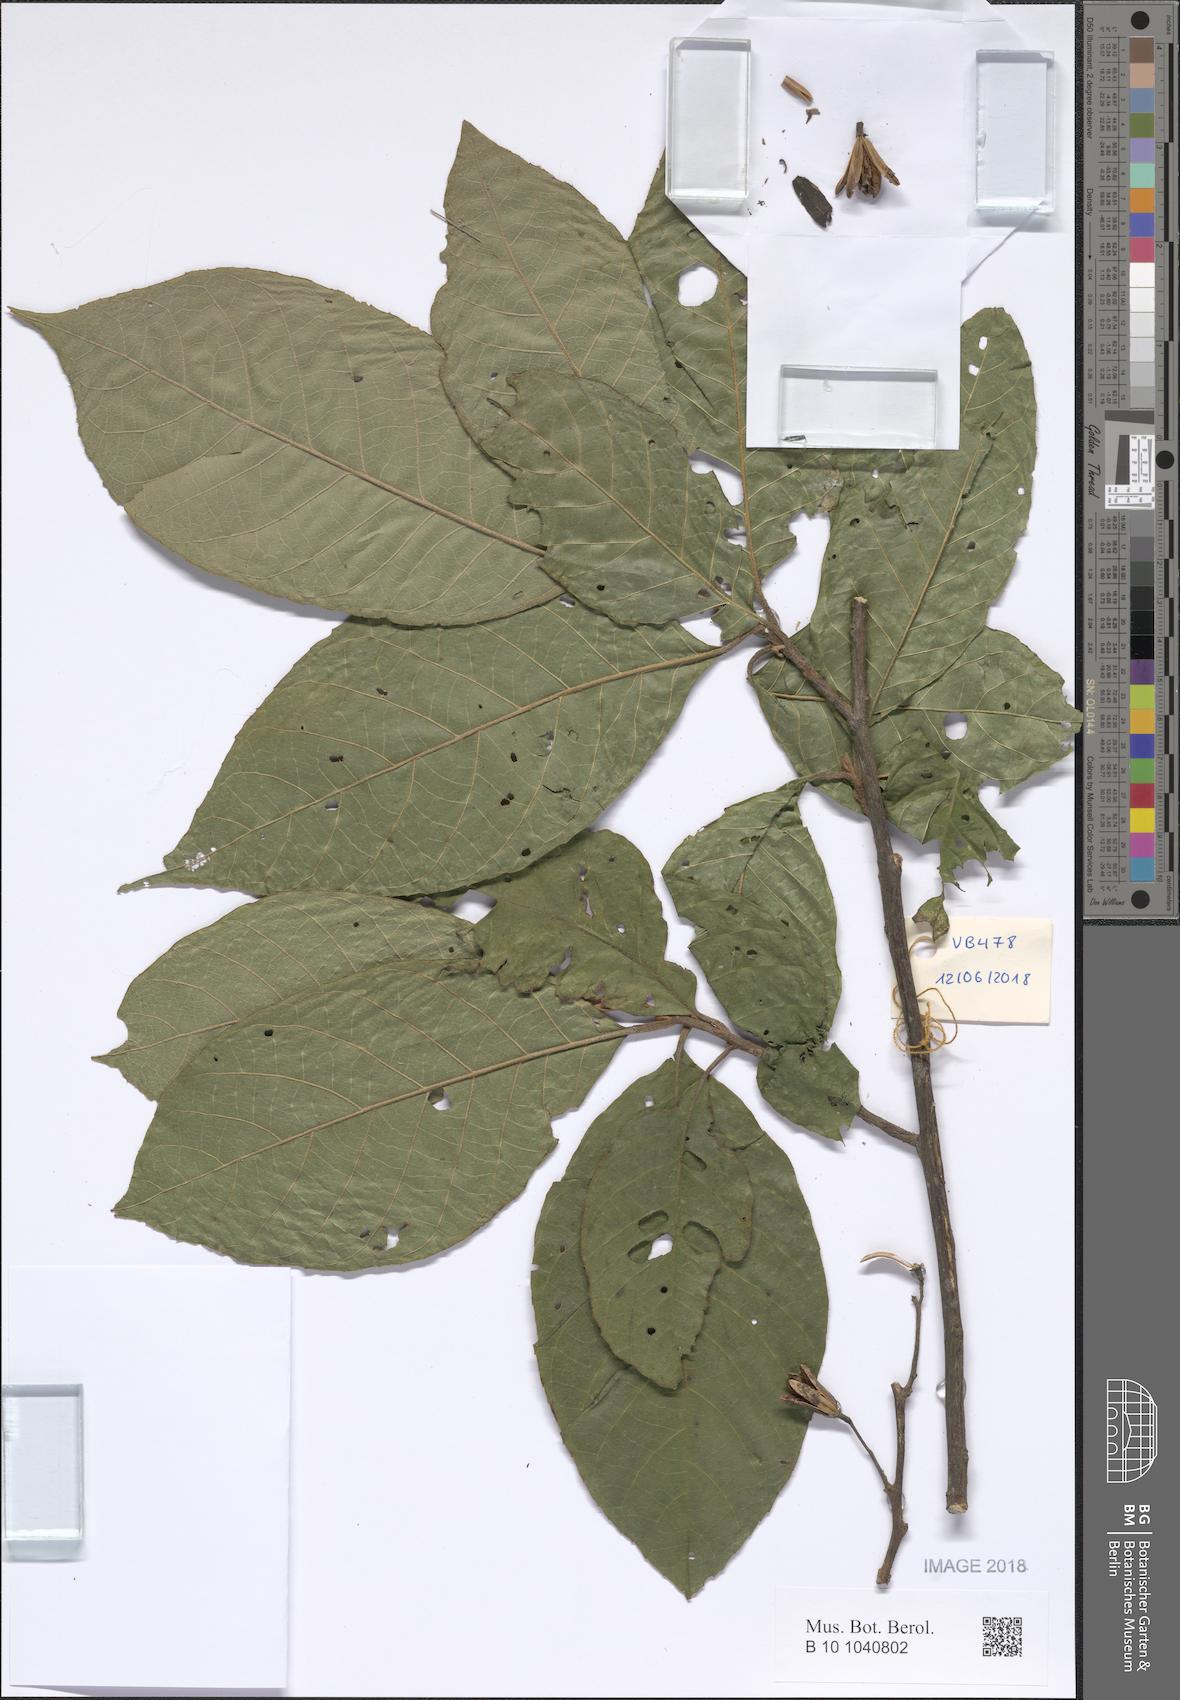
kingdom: Plantae
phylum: Tracheophyta
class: Magnoliopsida
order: Ericales
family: Ericaceae
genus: Rhododendron
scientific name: Rhododendron
